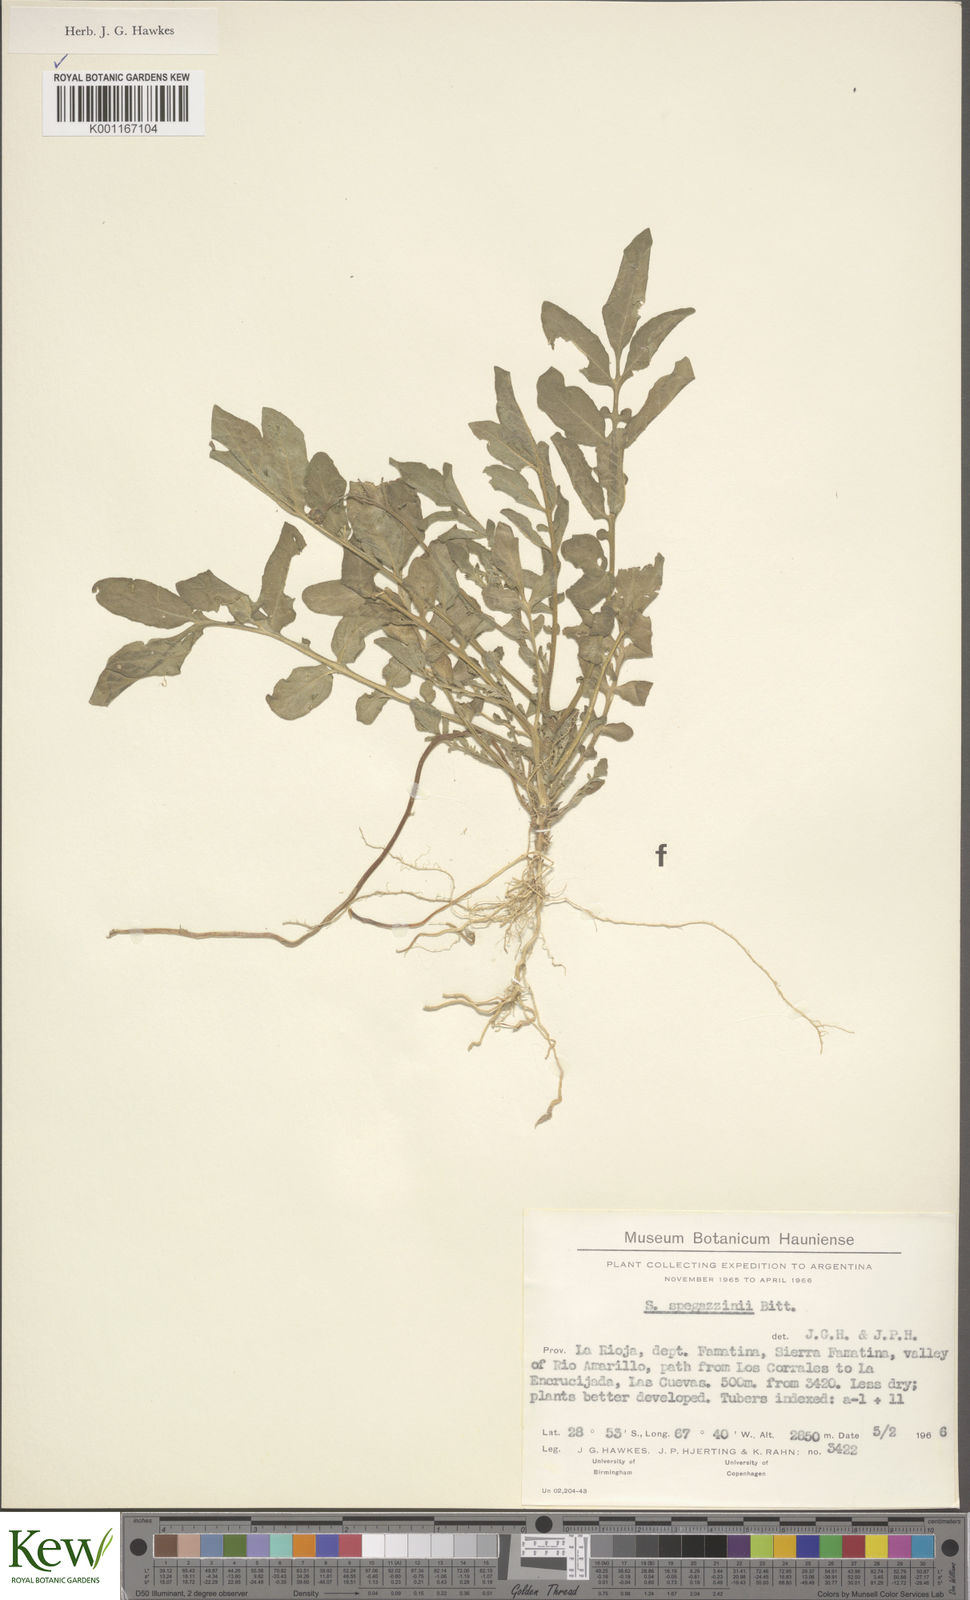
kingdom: Plantae
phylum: Tracheophyta
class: Magnoliopsida
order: Solanales
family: Solanaceae
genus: Solanum
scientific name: Solanum brevicaule
